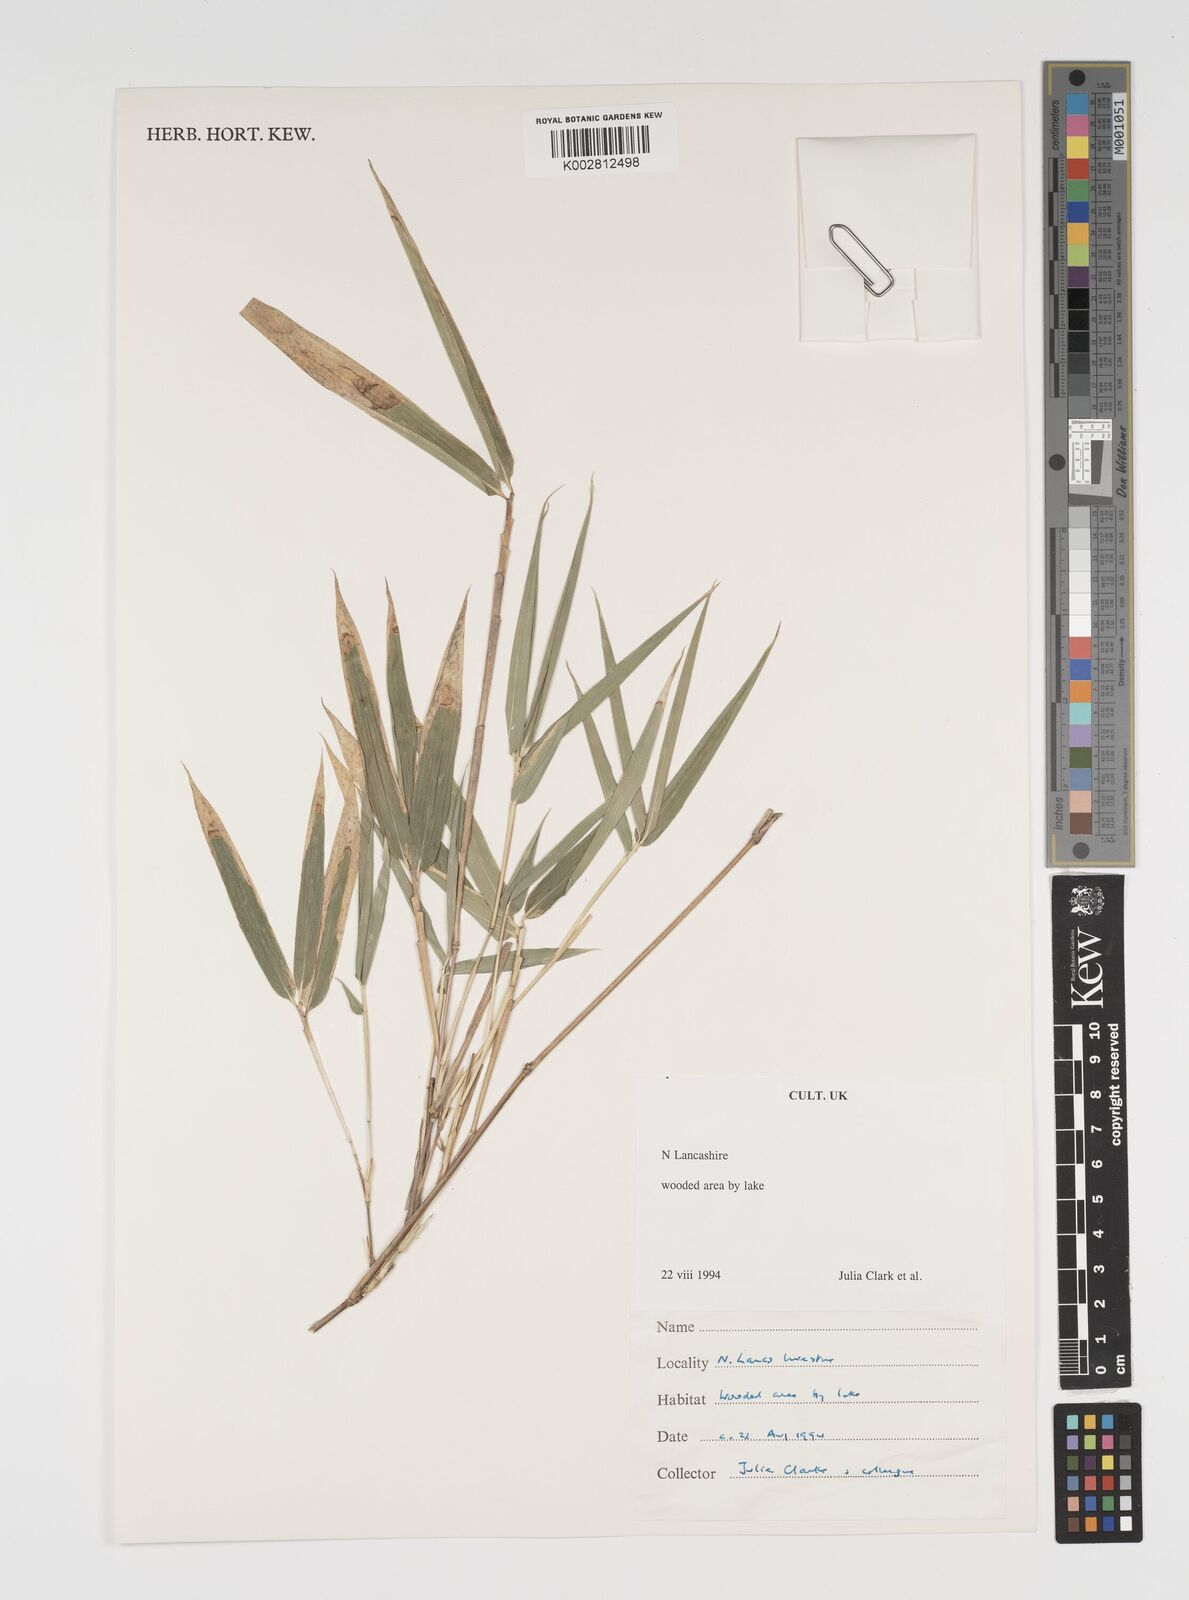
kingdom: Plantae
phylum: Tracheophyta
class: Liliopsida
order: Poales
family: Poaceae
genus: Arundinaria
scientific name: Arundinaria
